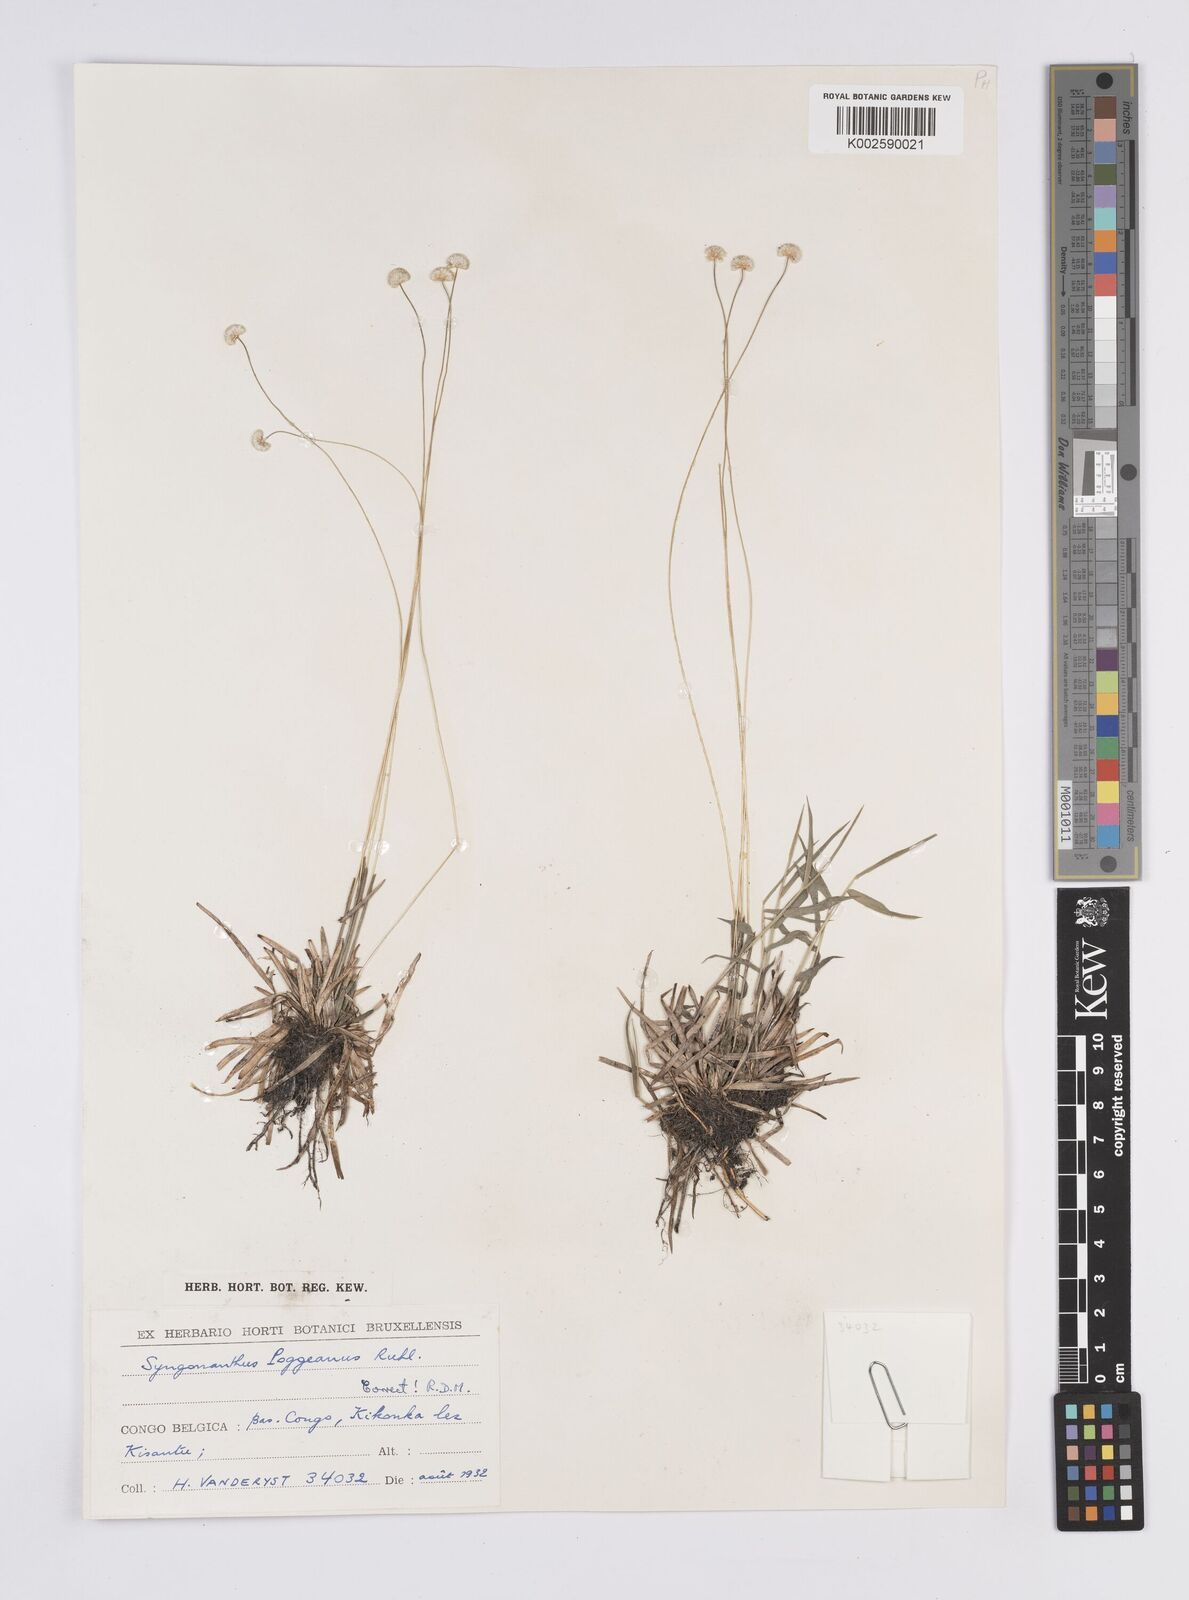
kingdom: Plantae
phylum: Tracheophyta
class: Liliopsida
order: Poales
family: Eriocaulaceae
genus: Syngonanthus
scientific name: Syngonanthus poggeanus
